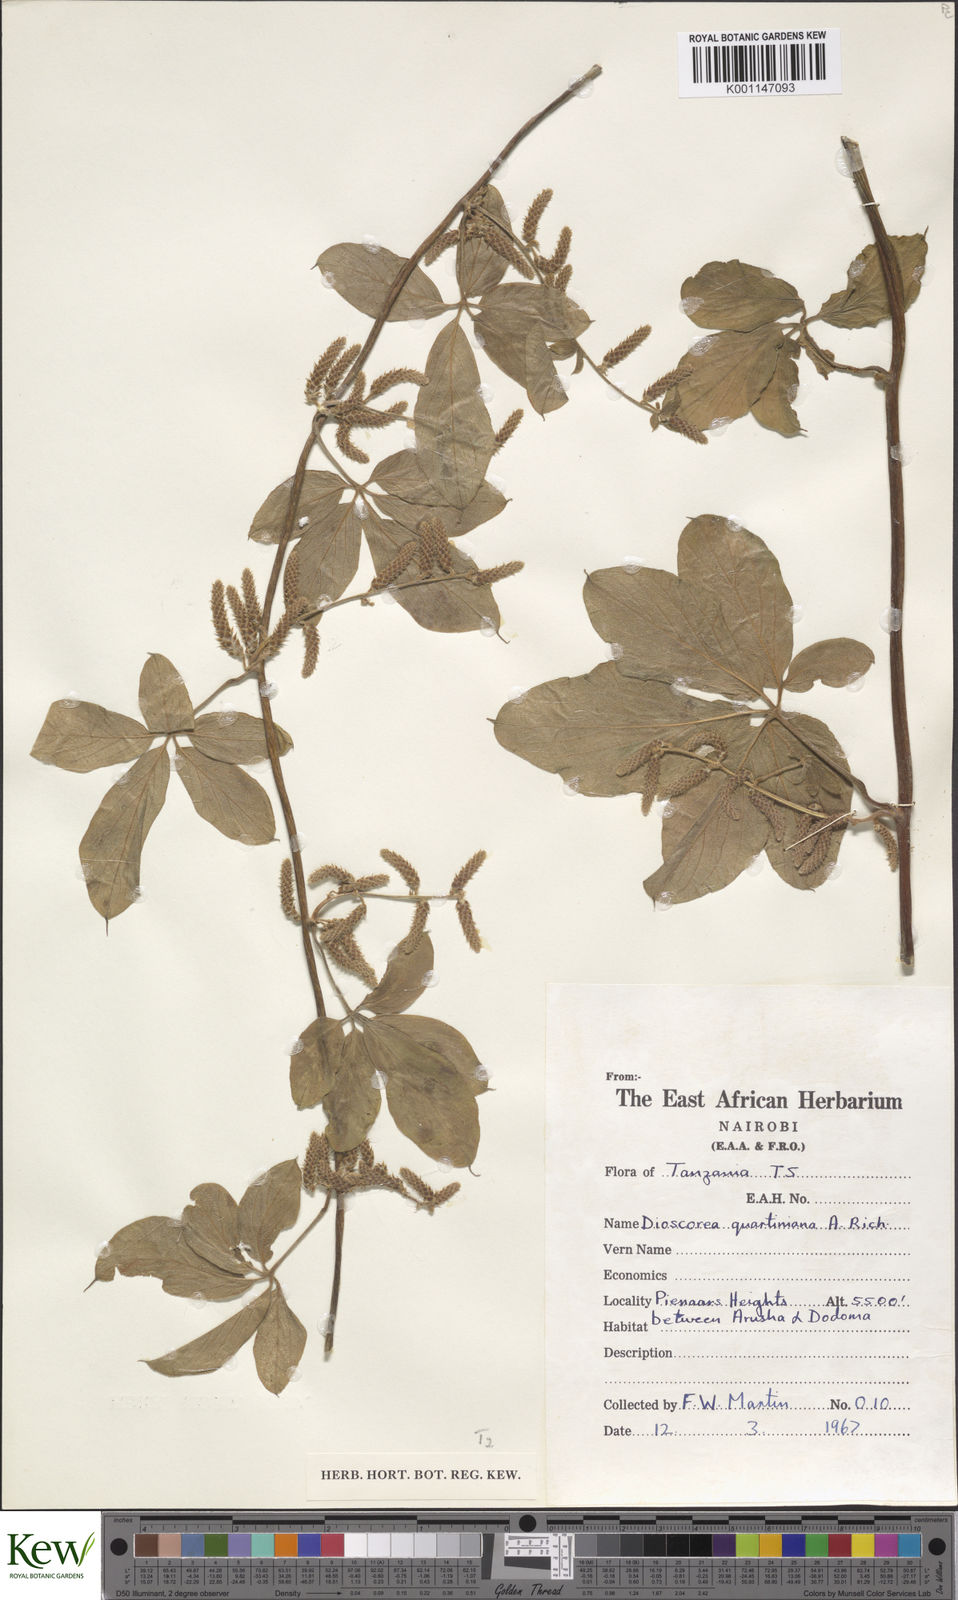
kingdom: Plantae
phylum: Tracheophyta
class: Liliopsida
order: Dioscoreales
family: Dioscoreaceae
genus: Dioscorea
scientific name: Dioscorea quartiniana
